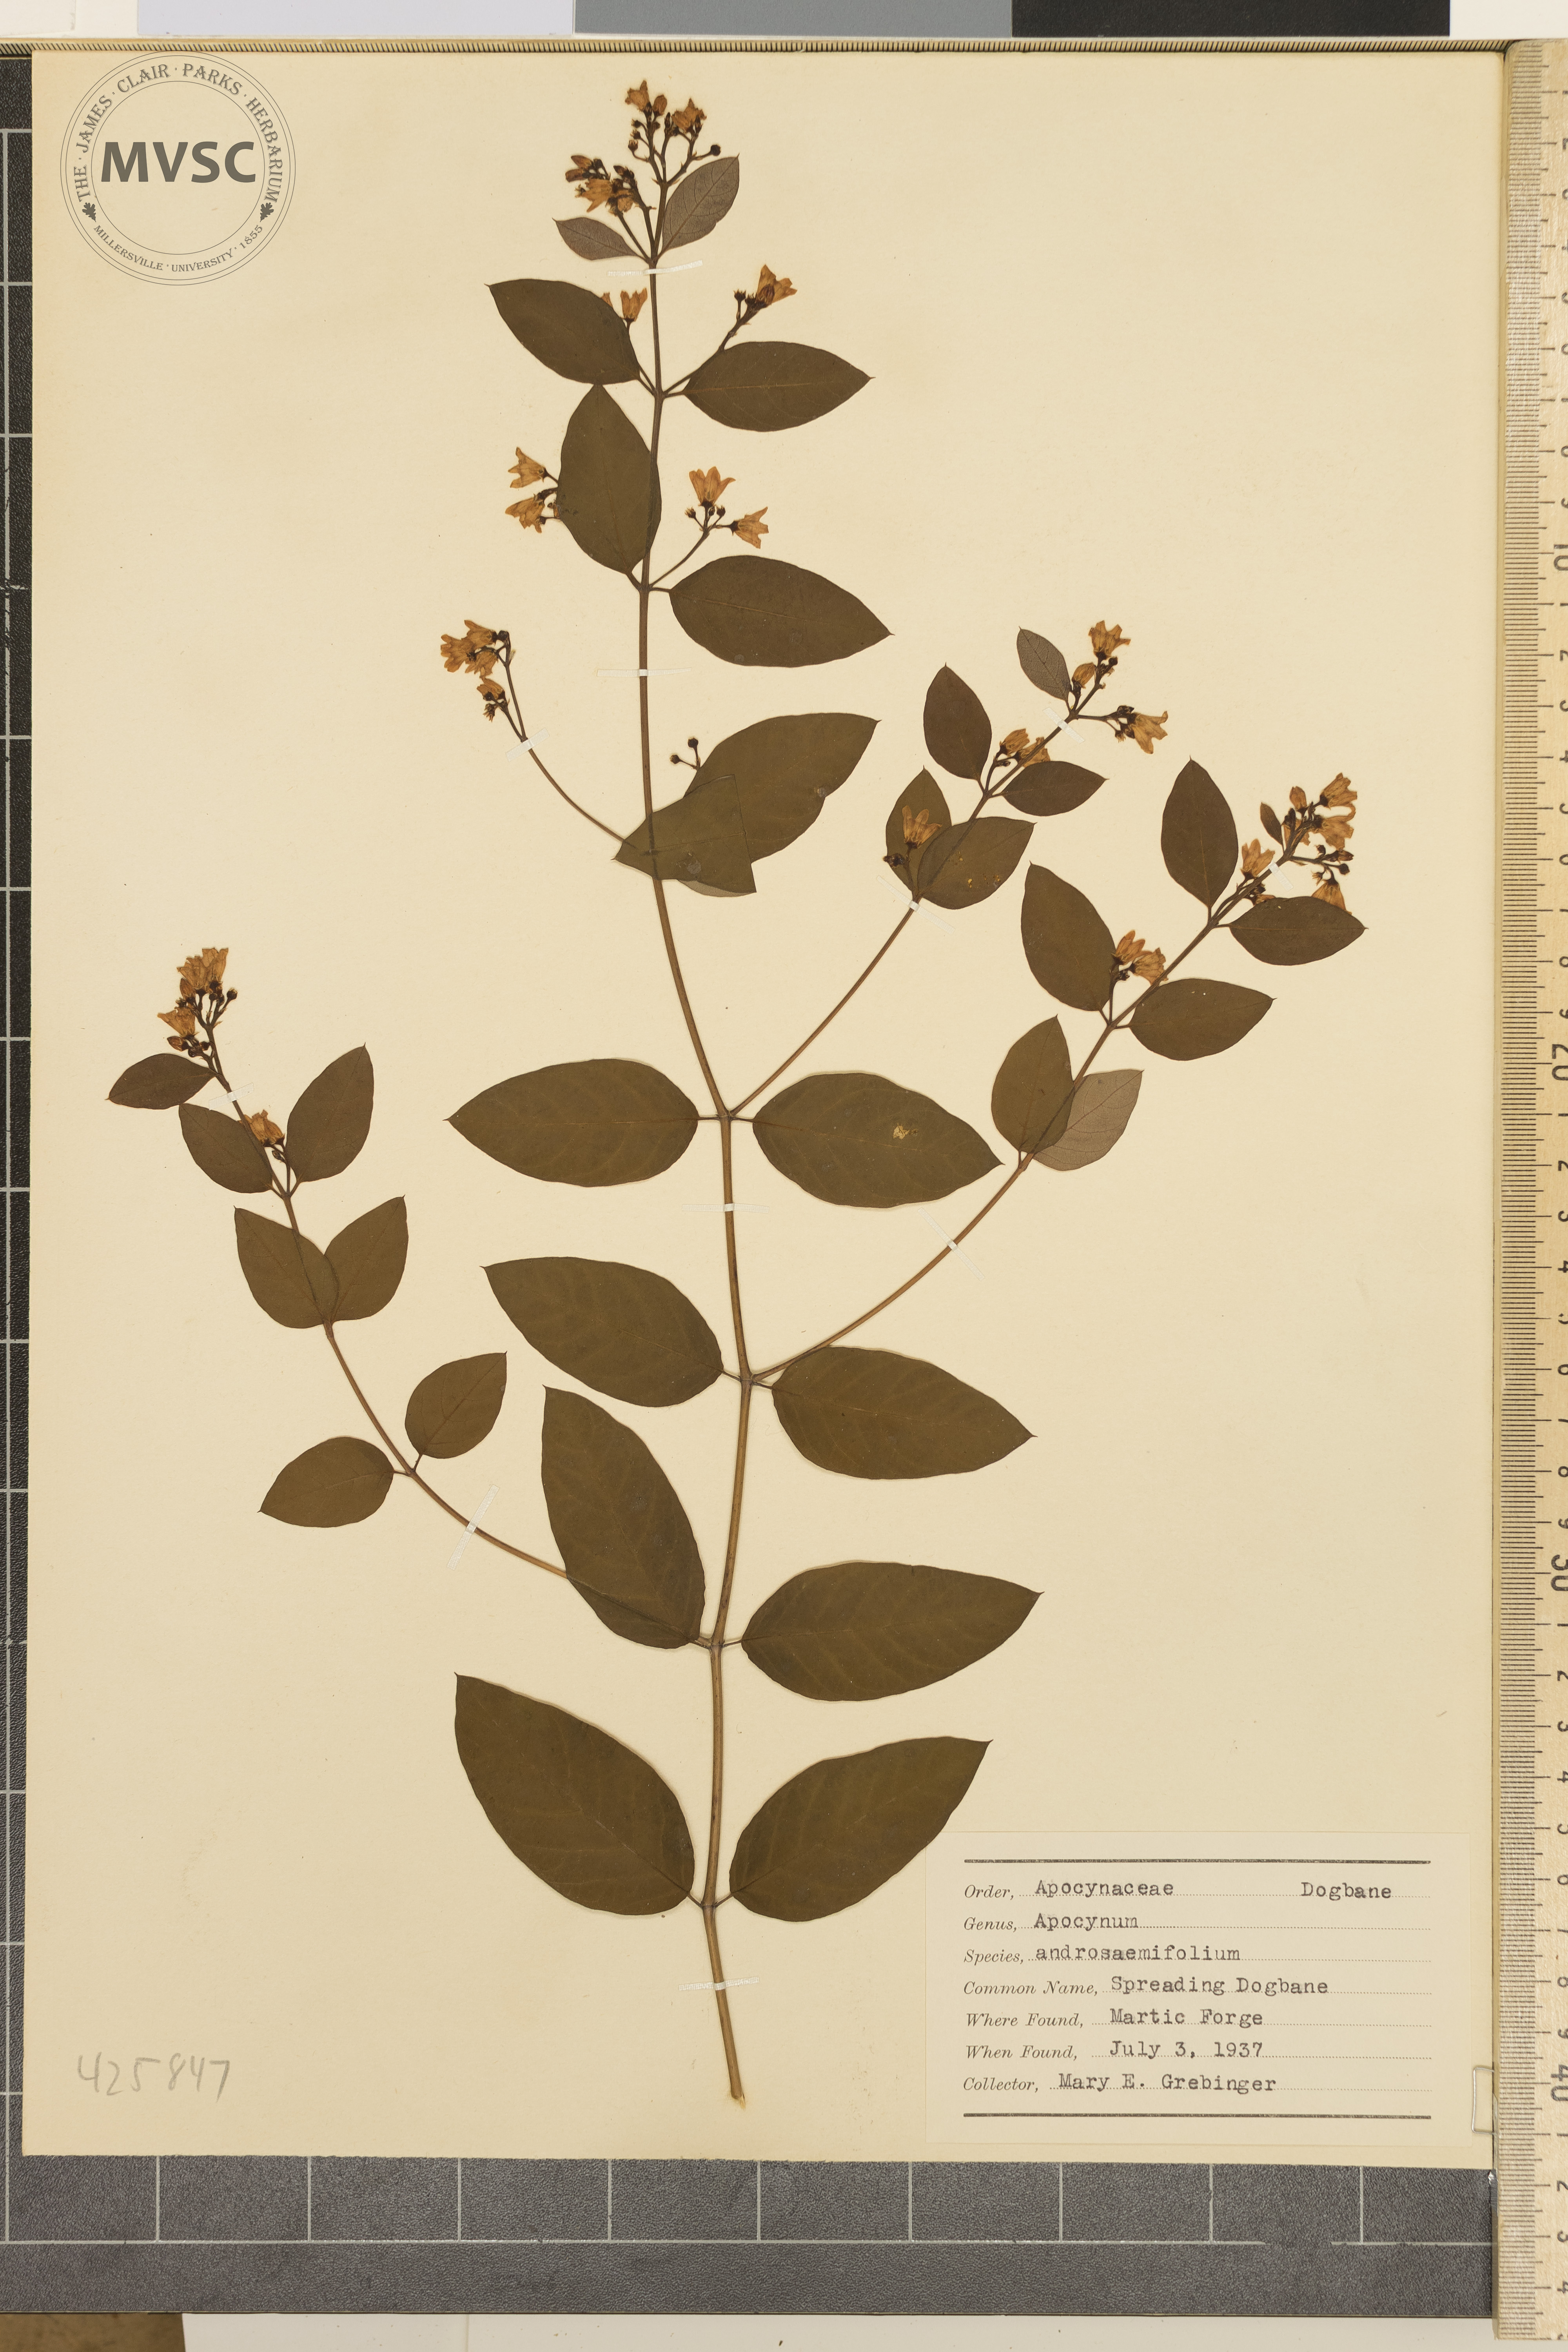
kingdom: Plantae
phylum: Tracheophyta
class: Magnoliopsida
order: Gentianales
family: Apocynaceae
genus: Apocynum
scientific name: Apocynum androsaemifolium
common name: Spreading Dogbane
